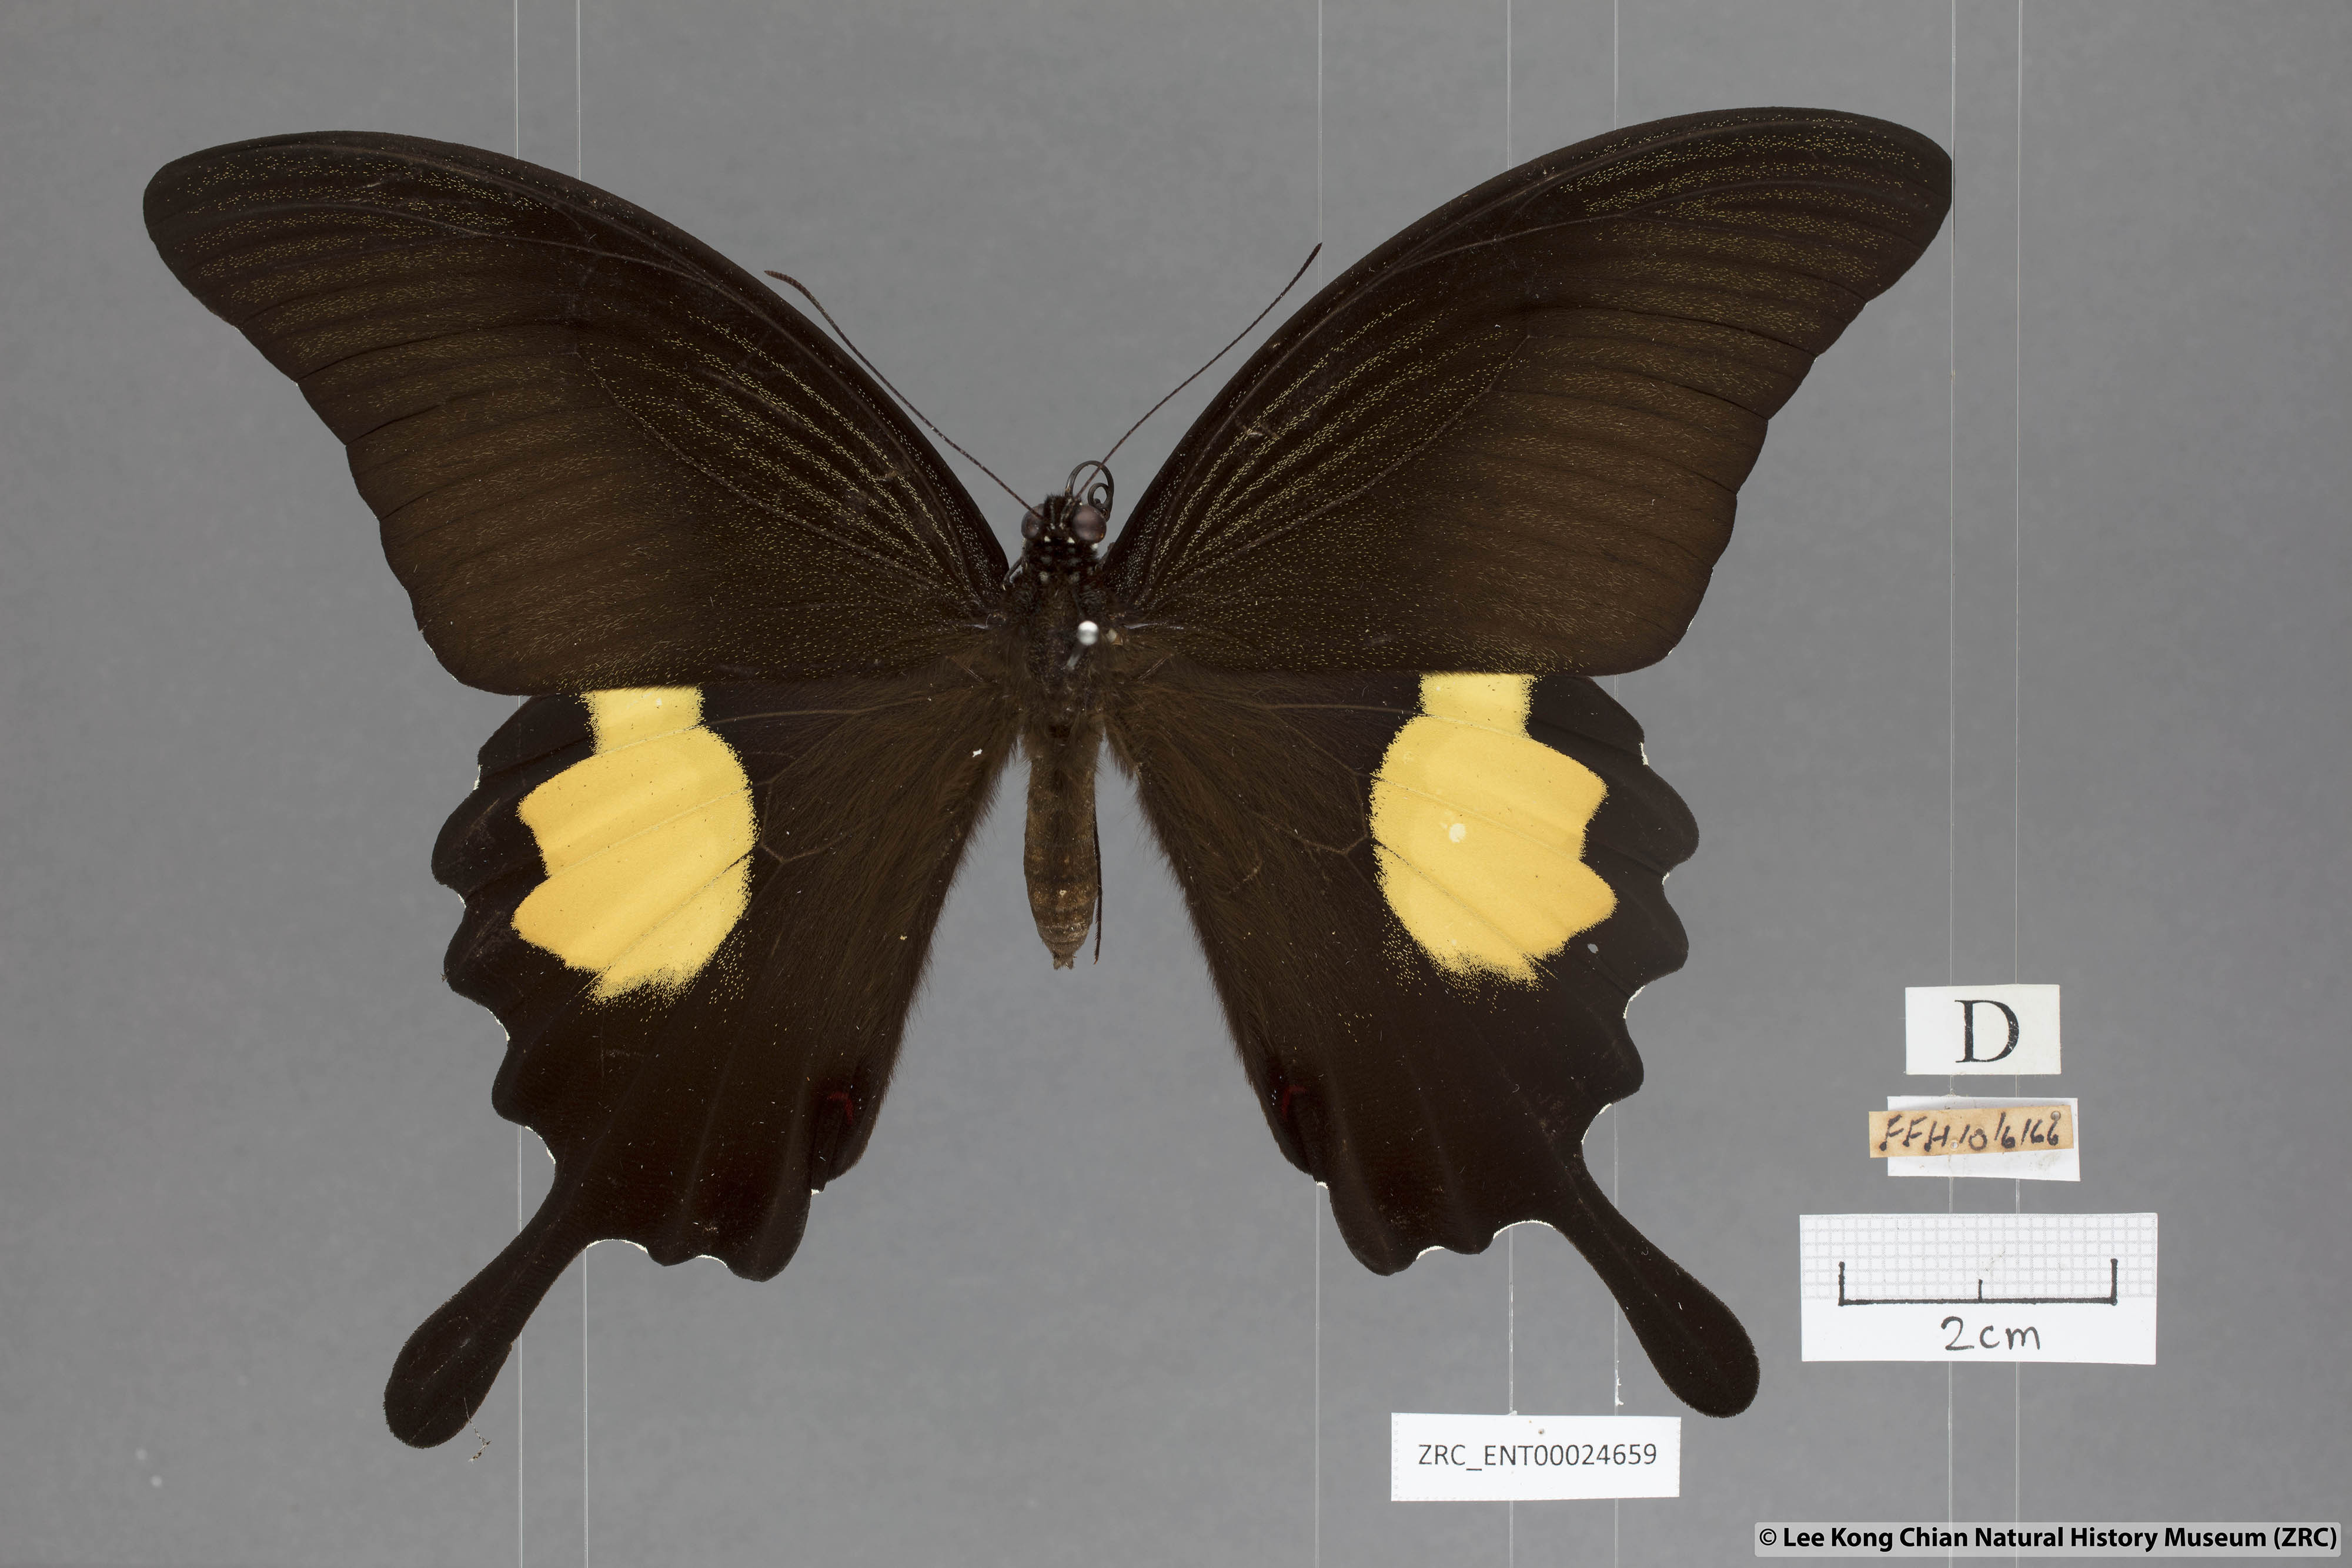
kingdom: Animalia
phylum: Arthropoda
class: Insecta
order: Lepidoptera
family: Papilionidae
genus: Papilio
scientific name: Papilio iswara
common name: Great helen swallowtail
